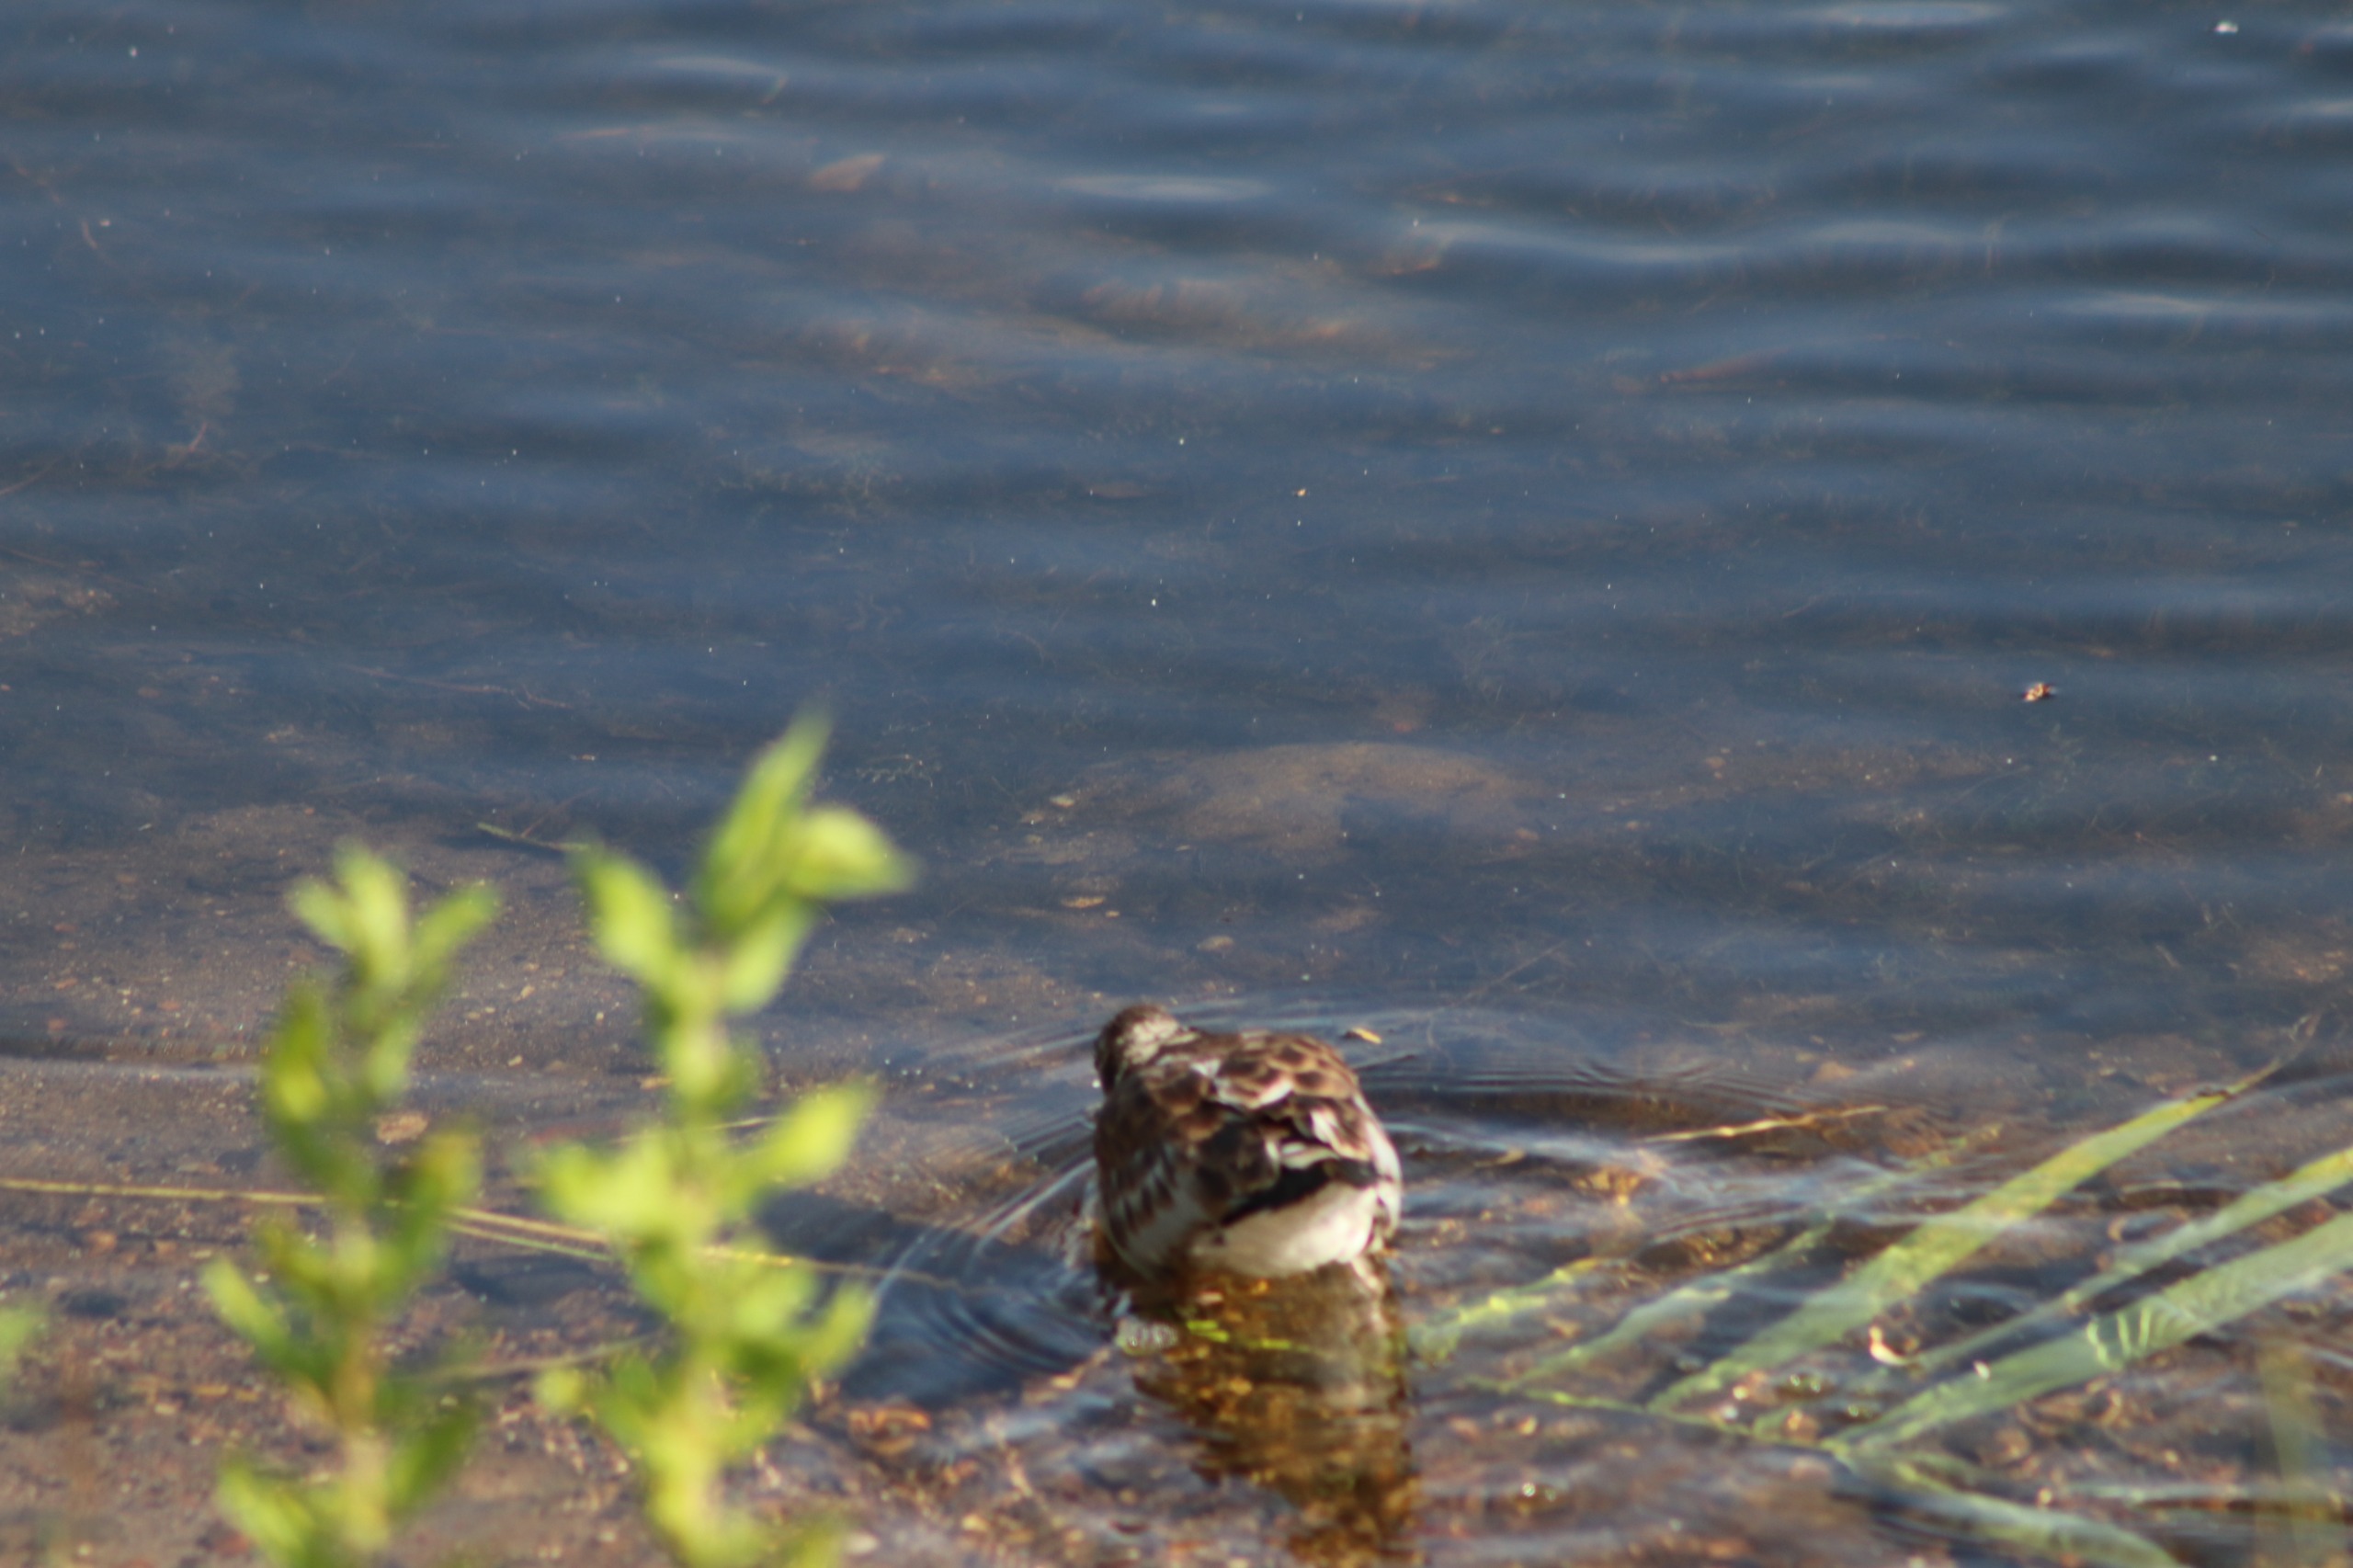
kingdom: Animalia
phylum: Chordata
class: Aves
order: Charadriiformes
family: Laridae
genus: Chroicocephalus
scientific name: Chroicocephalus ridibundus
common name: Hættemåge
